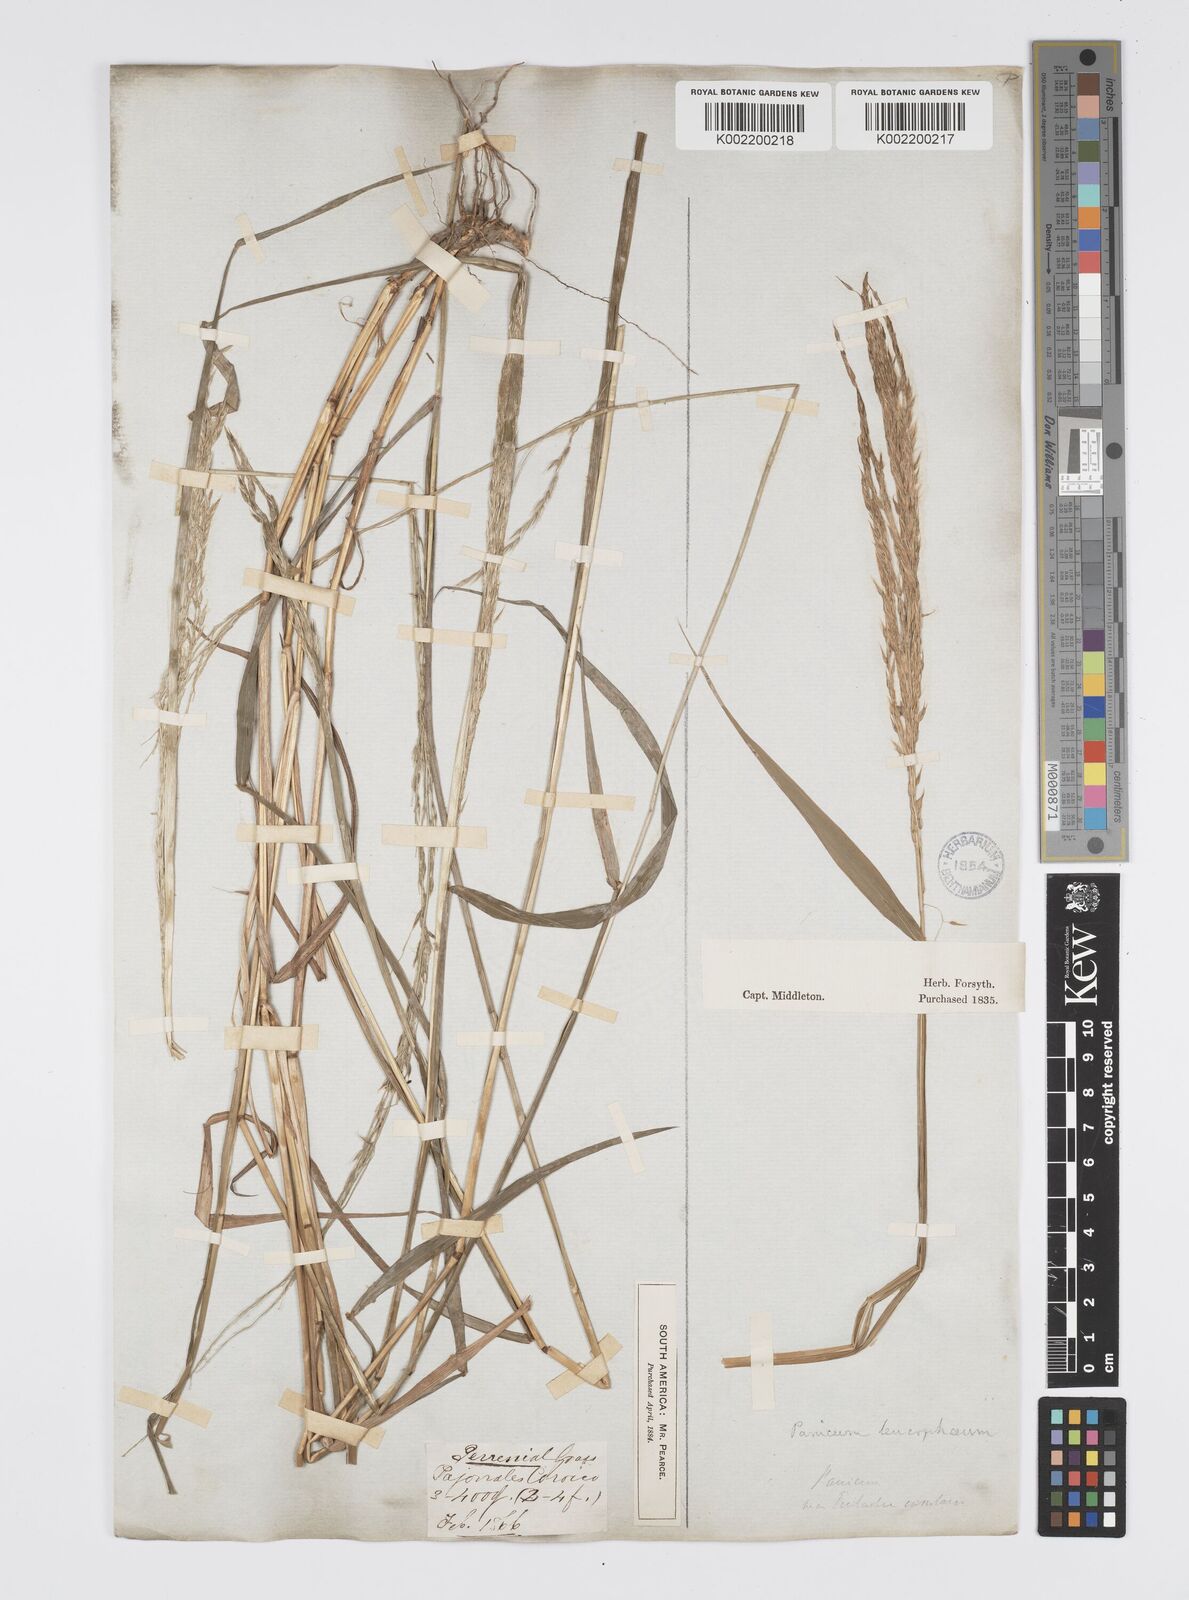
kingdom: Plantae
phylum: Tracheophyta
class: Liliopsida
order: Poales
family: Poaceae
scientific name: Poaceae
